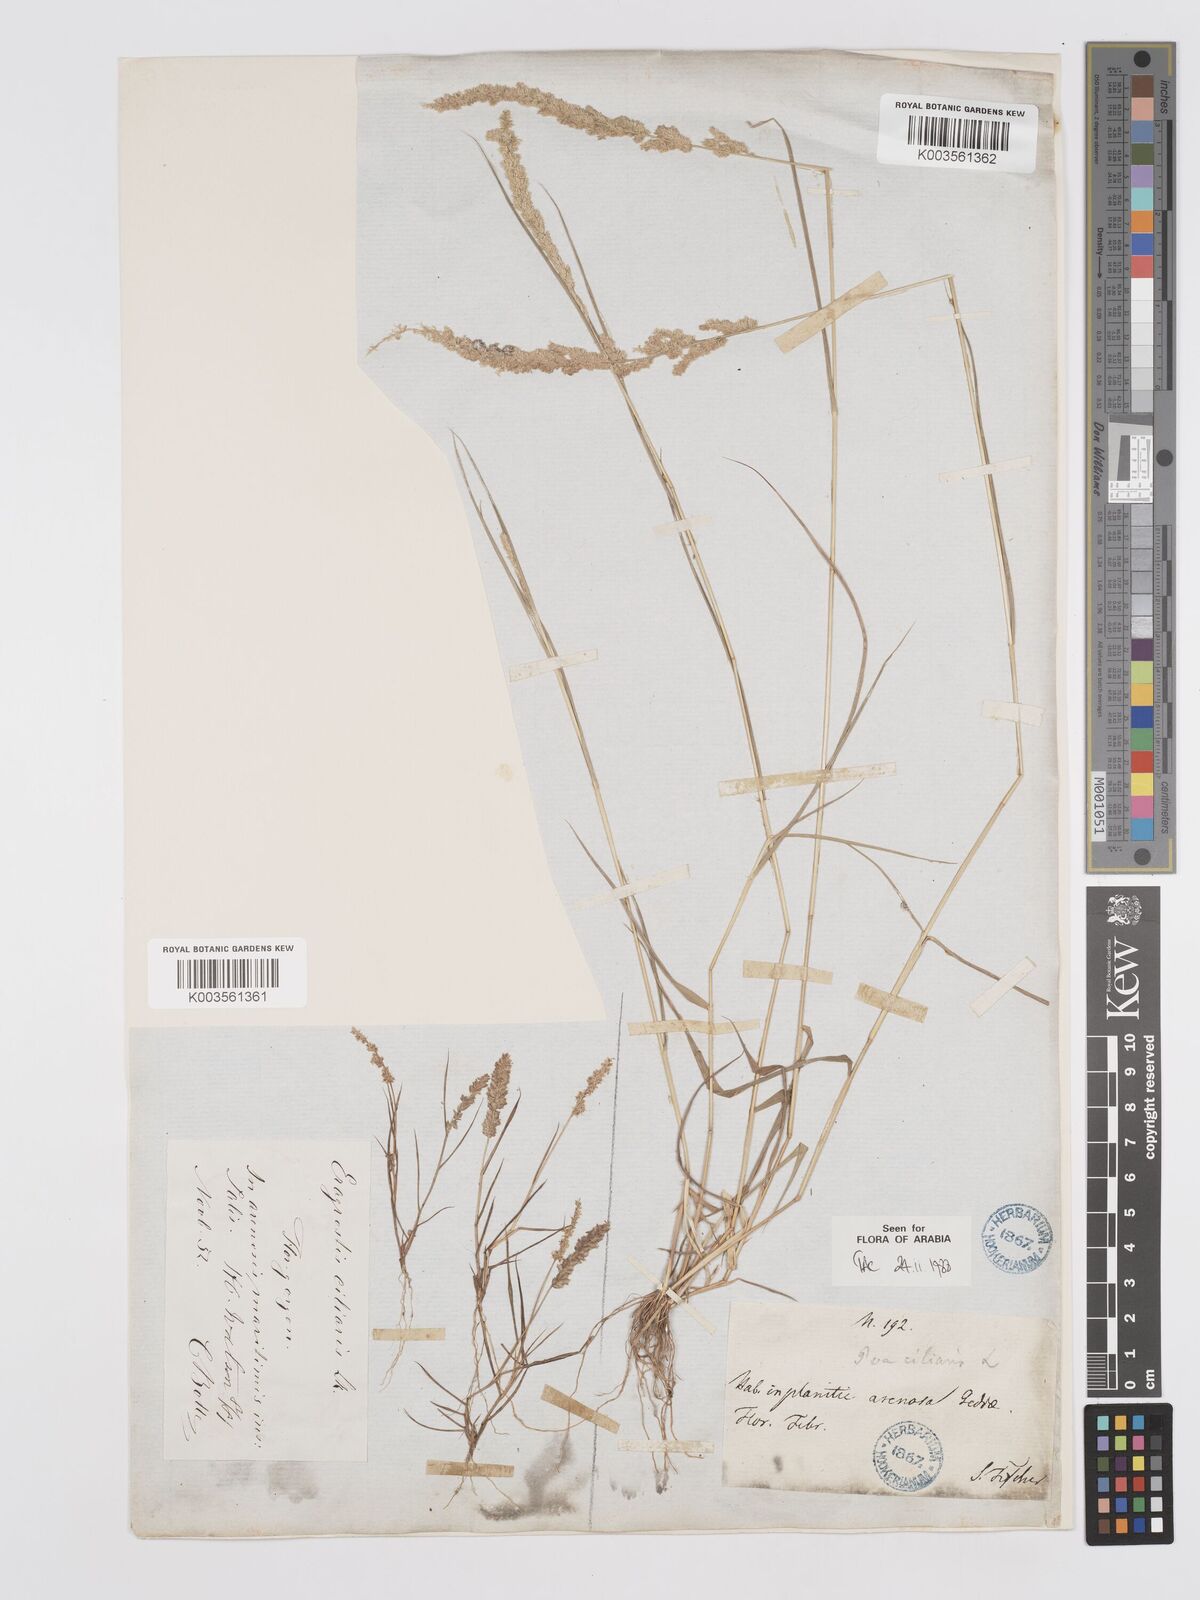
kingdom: Plantae
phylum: Tracheophyta
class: Liliopsida
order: Poales
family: Poaceae
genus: Eragrostis
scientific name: Eragrostis ciliaris
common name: Gophertail lovegrass
